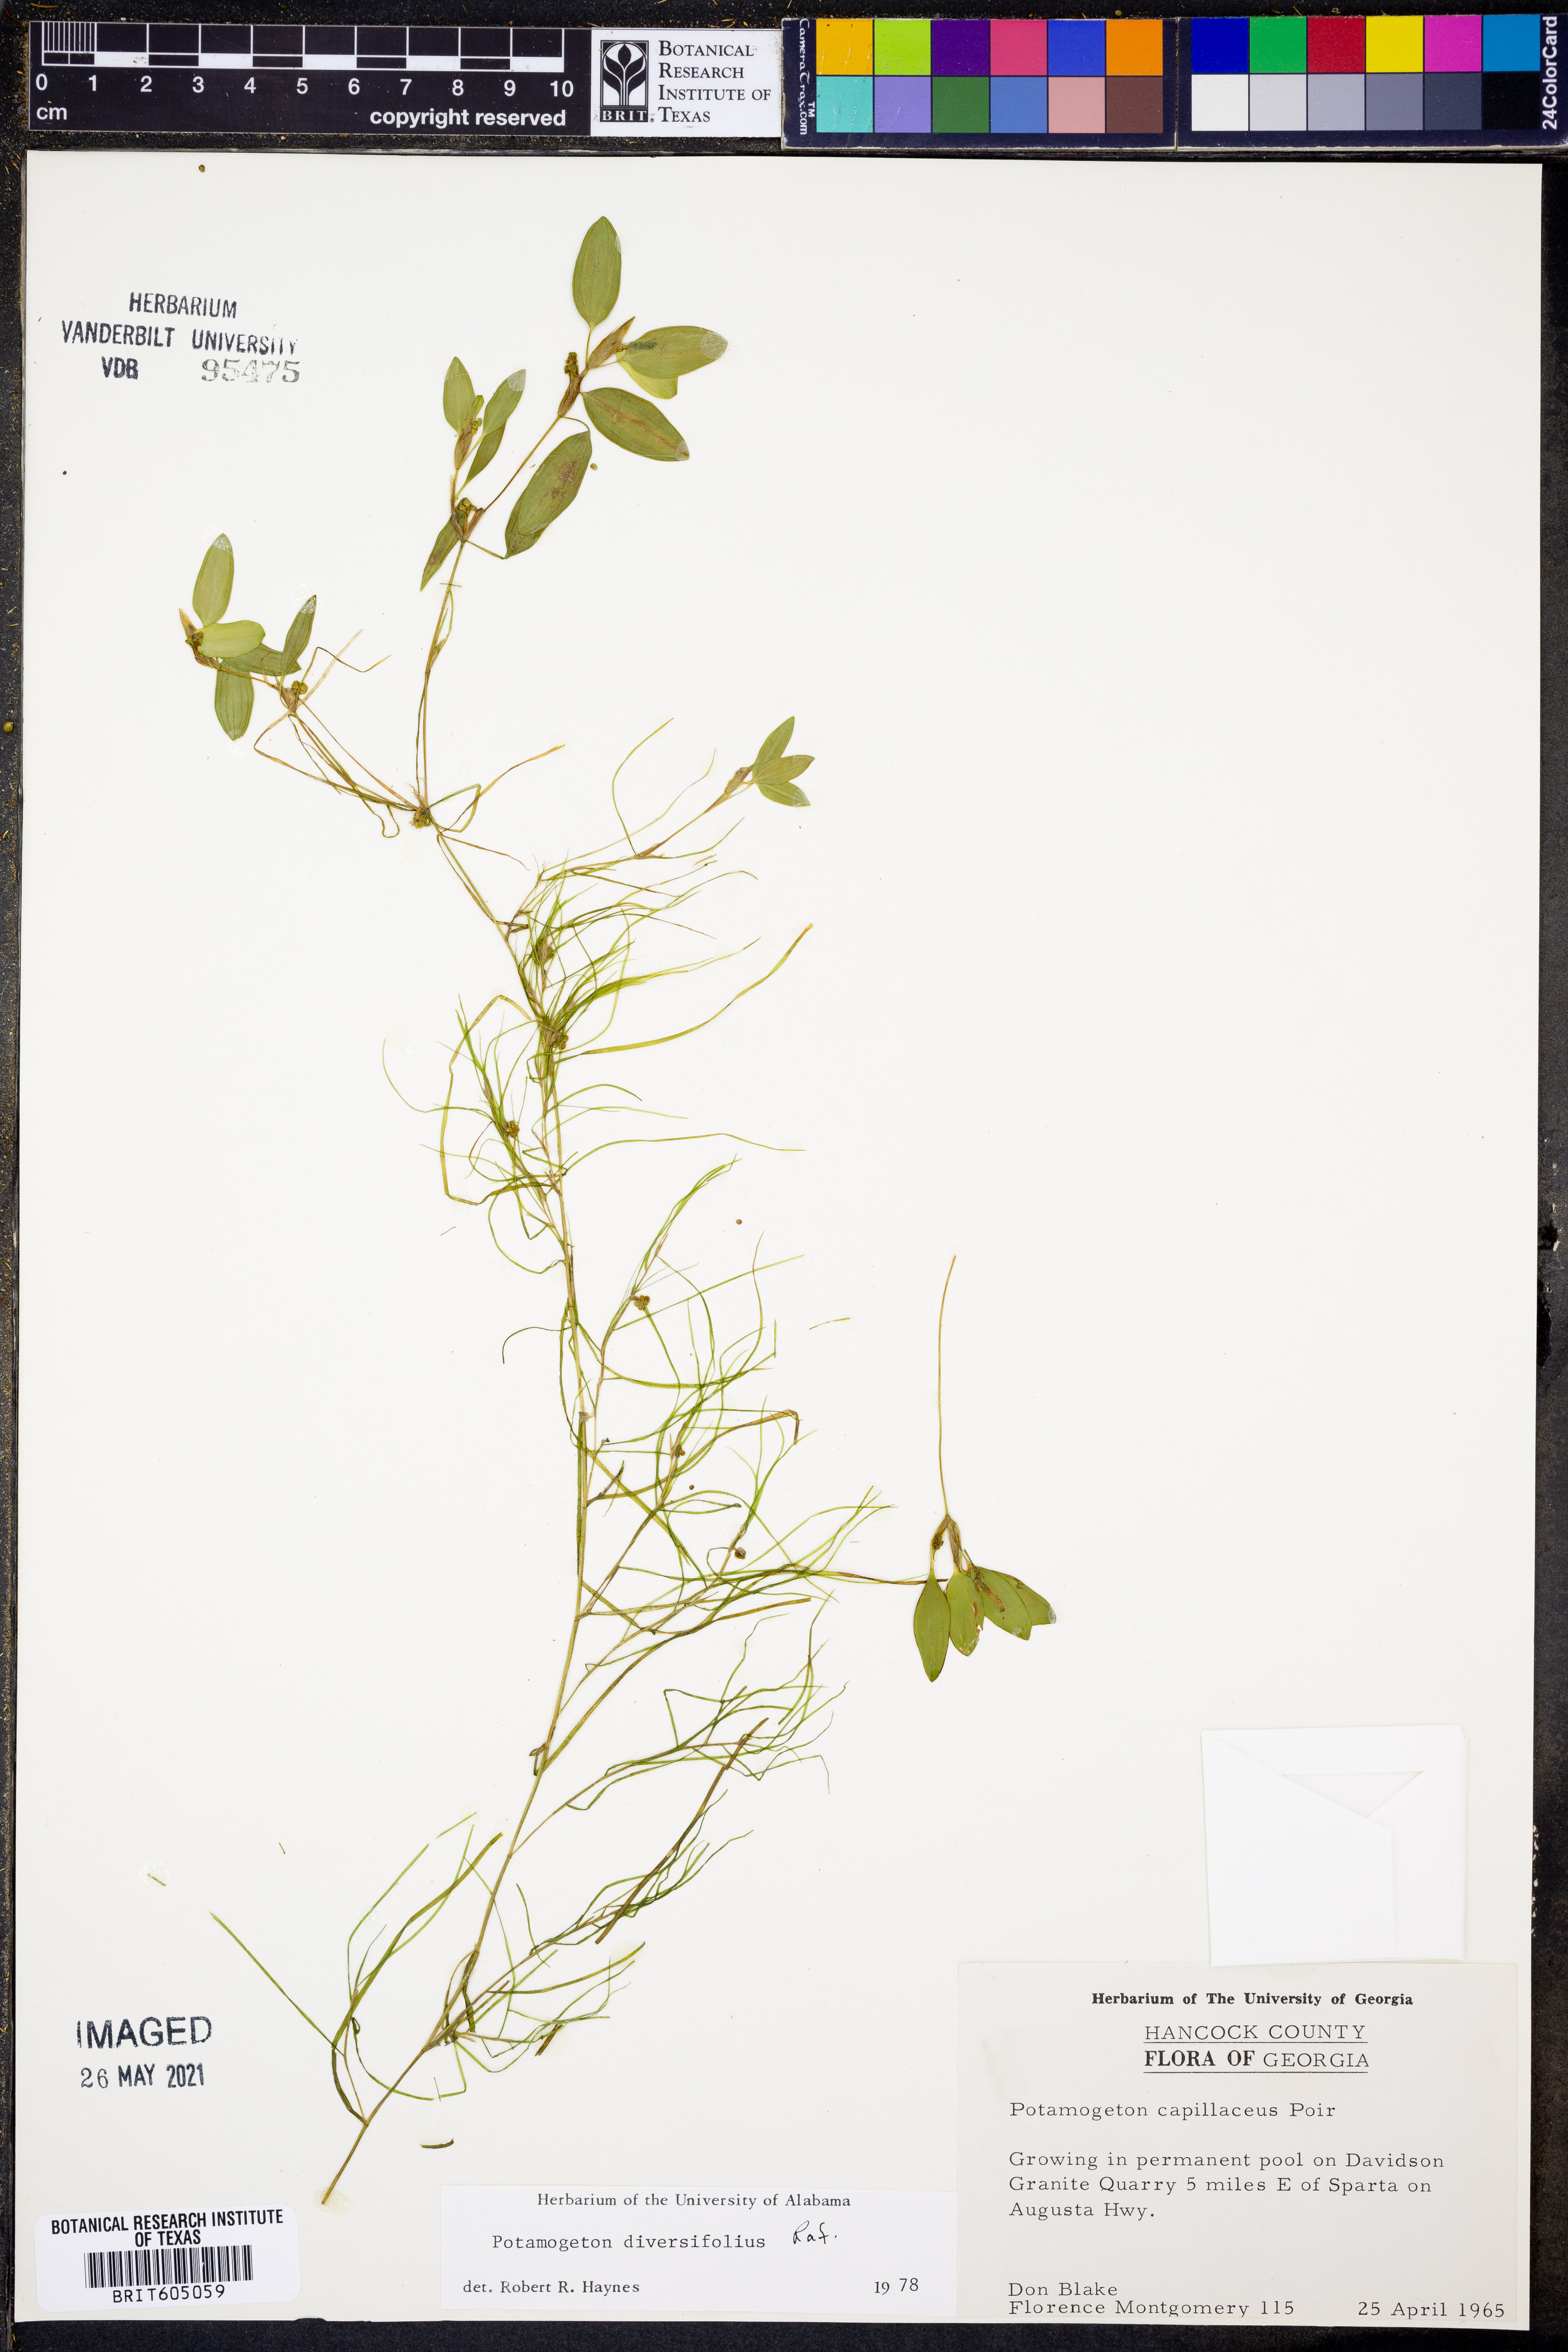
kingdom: Plantae
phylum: Tracheophyta
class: Liliopsida
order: Alismatales
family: Potamogetonaceae
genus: Potamogeton
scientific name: Potamogeton diversifolius
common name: Water-thread pondweed
